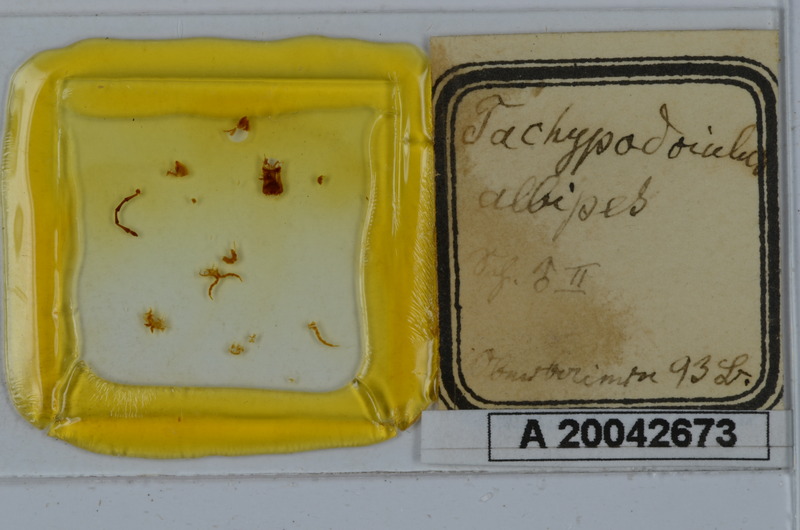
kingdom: Animalia
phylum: Arthropoda
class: Diplopoda
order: Julida
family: Julidae
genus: Tachypodoiulus
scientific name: Tachypodoiulus niger
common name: White-legged snake millipede
